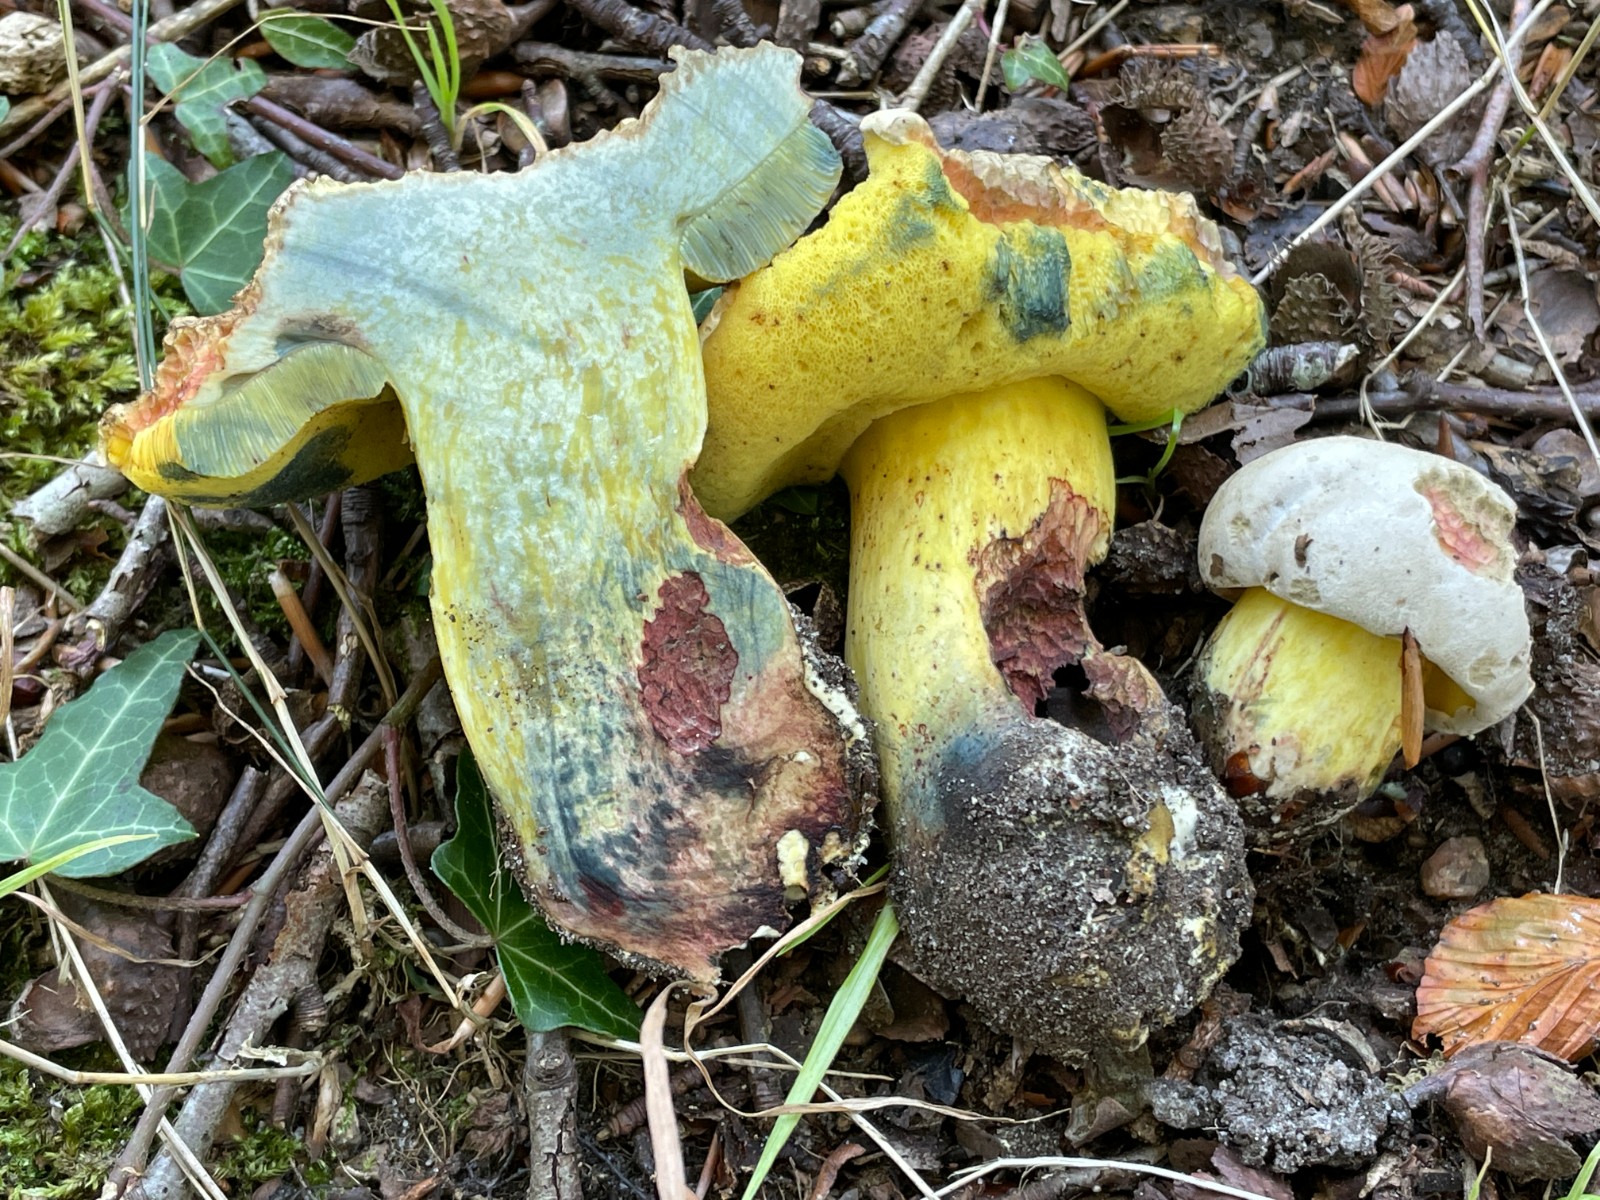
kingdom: Fungi
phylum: Basidiomycota
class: Agaricomycetes
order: Boletales
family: Boletaceae
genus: Caloboletus
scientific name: Caloboletus radicans
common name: rod-rørhat
